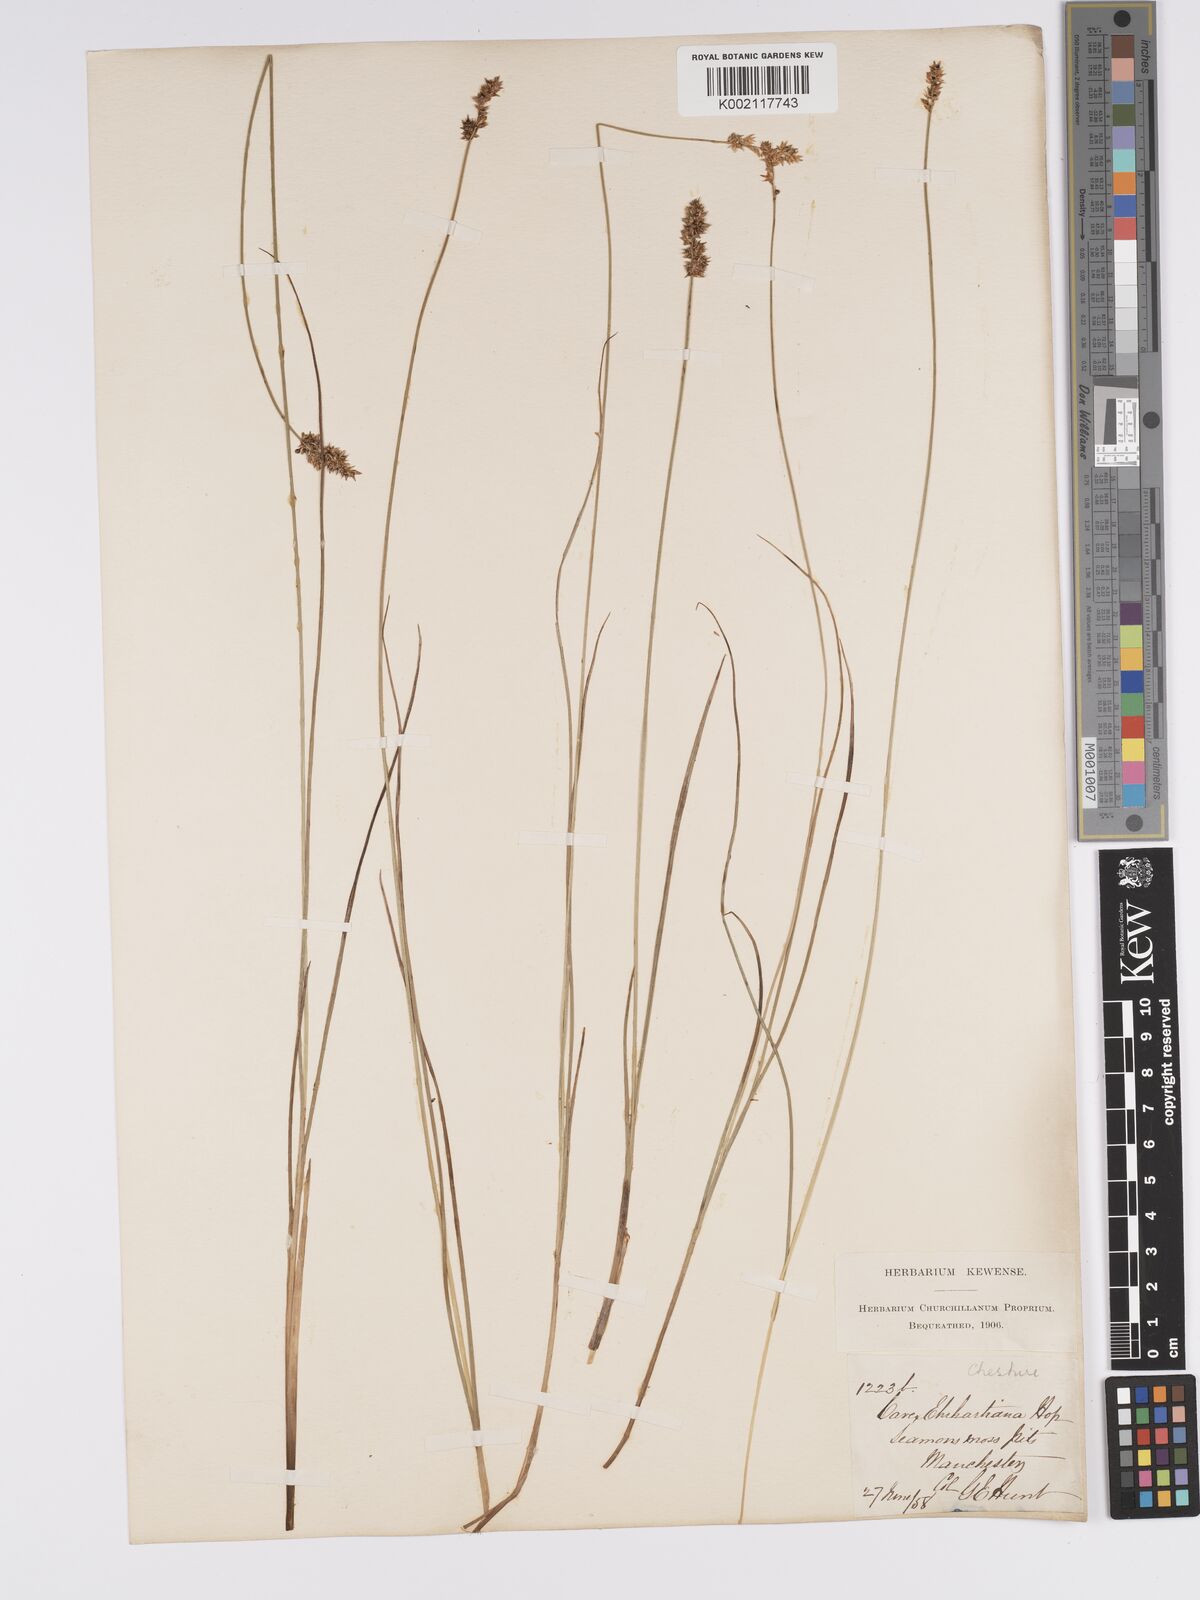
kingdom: Plantae
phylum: Tracheophyta
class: Liliopsida
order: Poales
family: Cyperaceae
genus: Carex
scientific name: Carex diandra
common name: Lesser tussock-sedge
